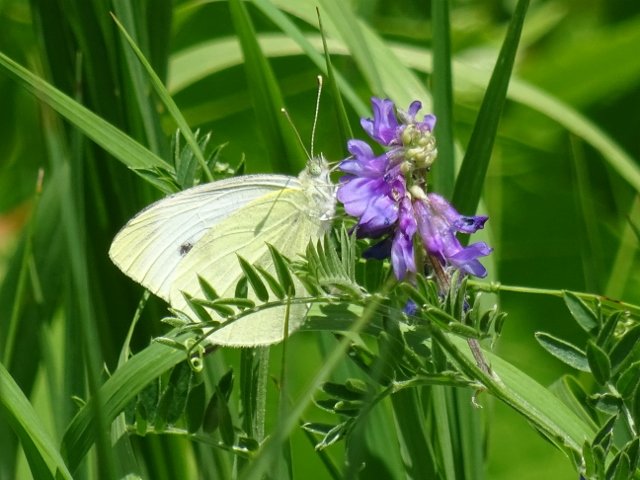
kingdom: Animalia
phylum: Arthropoda
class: Insecta
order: Lepidoptera
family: Pieridae
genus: Pieris
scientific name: Pieris rapae
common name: Cabbage White
